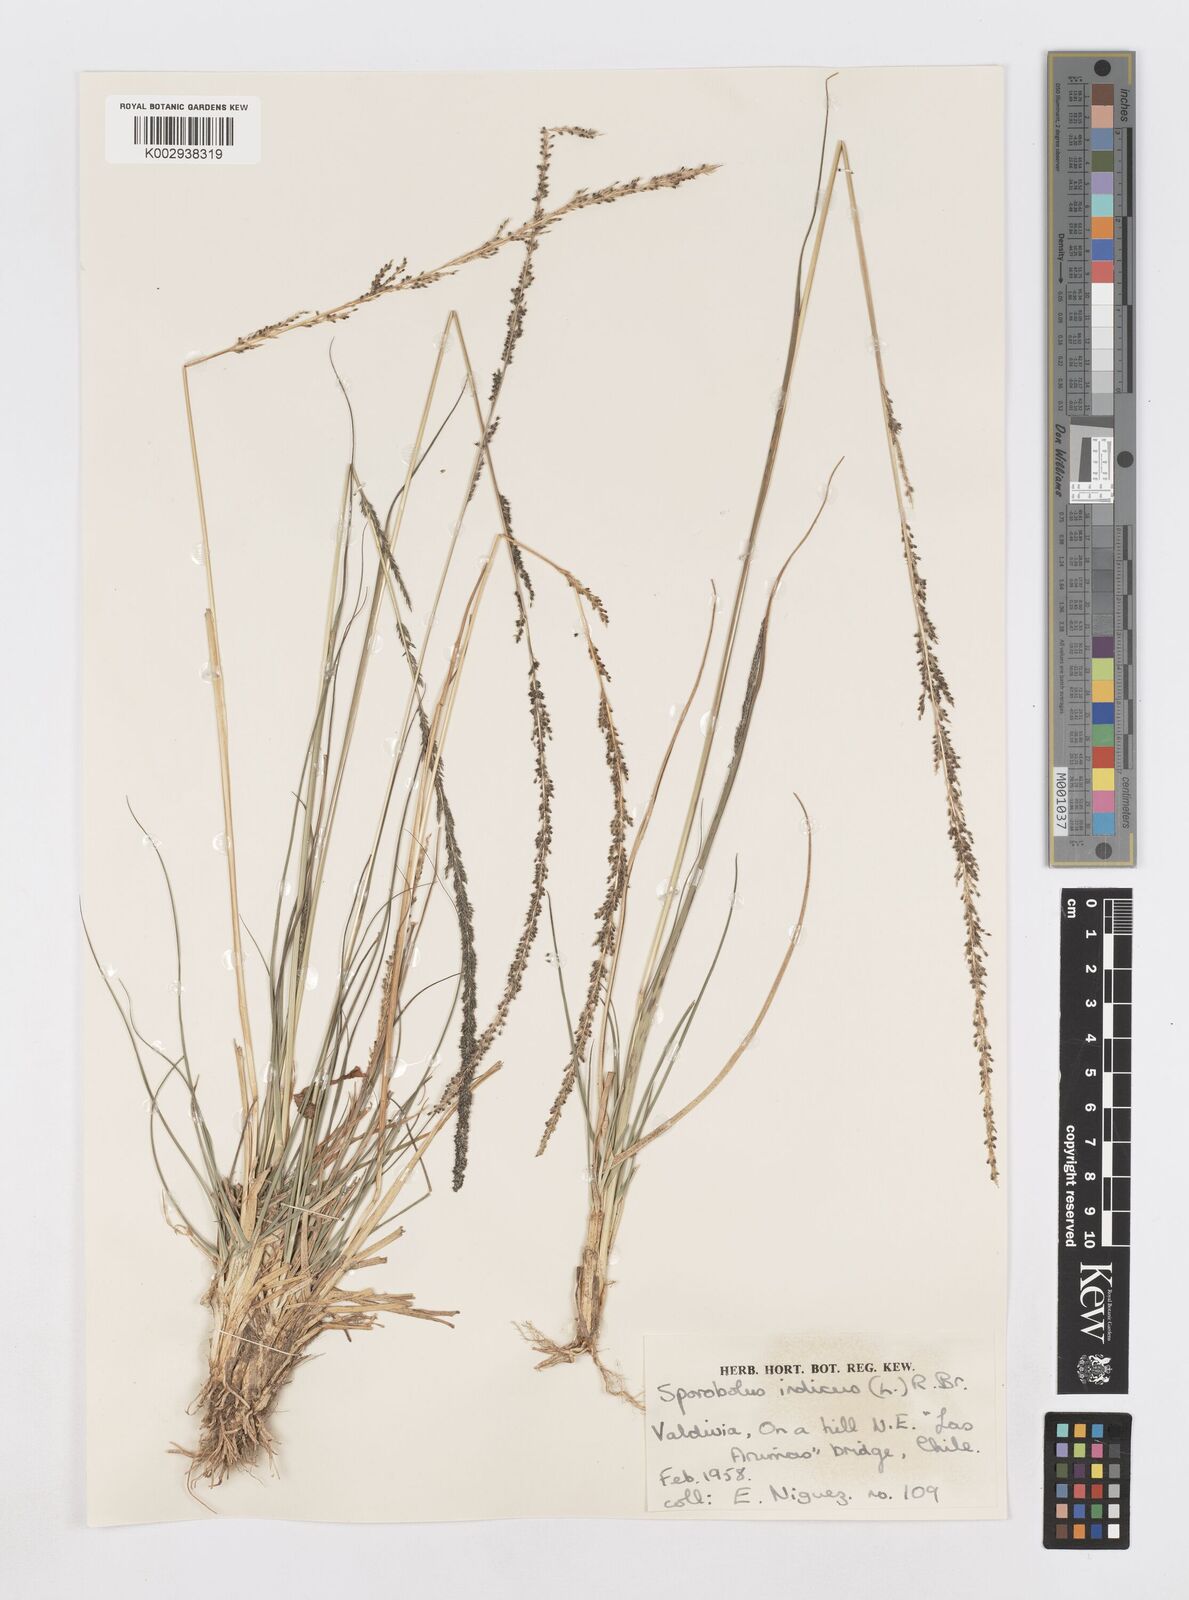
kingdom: Plantae
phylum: Tracheophyta
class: Liliopsida
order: Poales
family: Poaceae
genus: Sporobolus
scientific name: Sporobolus indicus
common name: Smut grass
